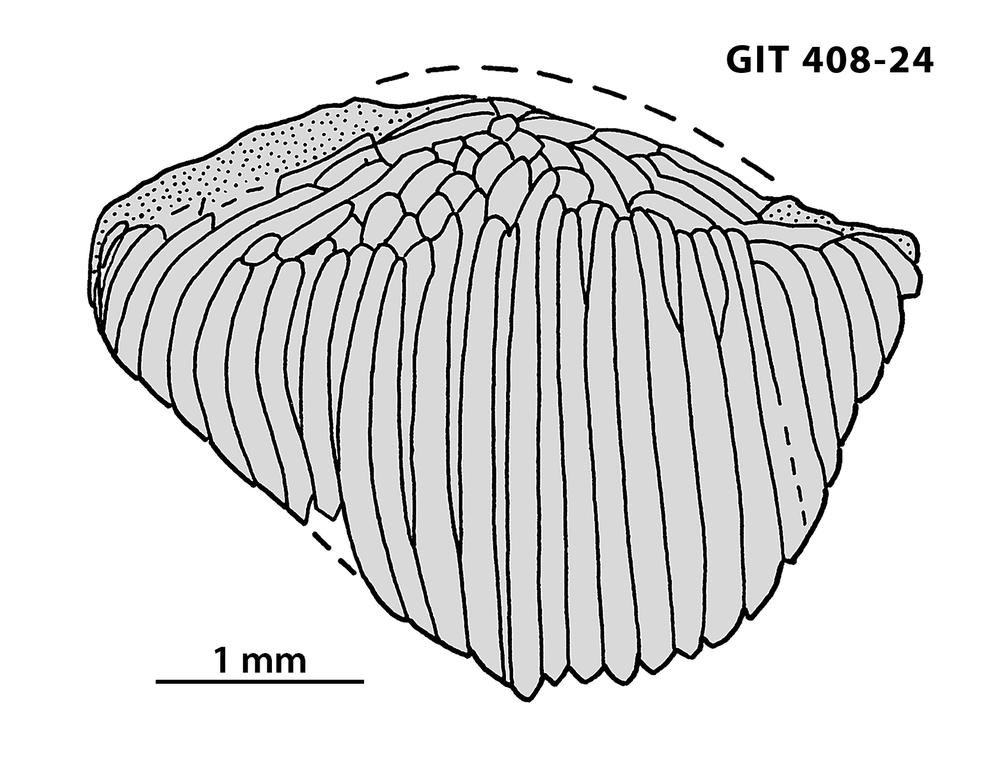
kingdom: Animalia
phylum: Chordata
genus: Archegonaspis
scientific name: Archegonaspis
